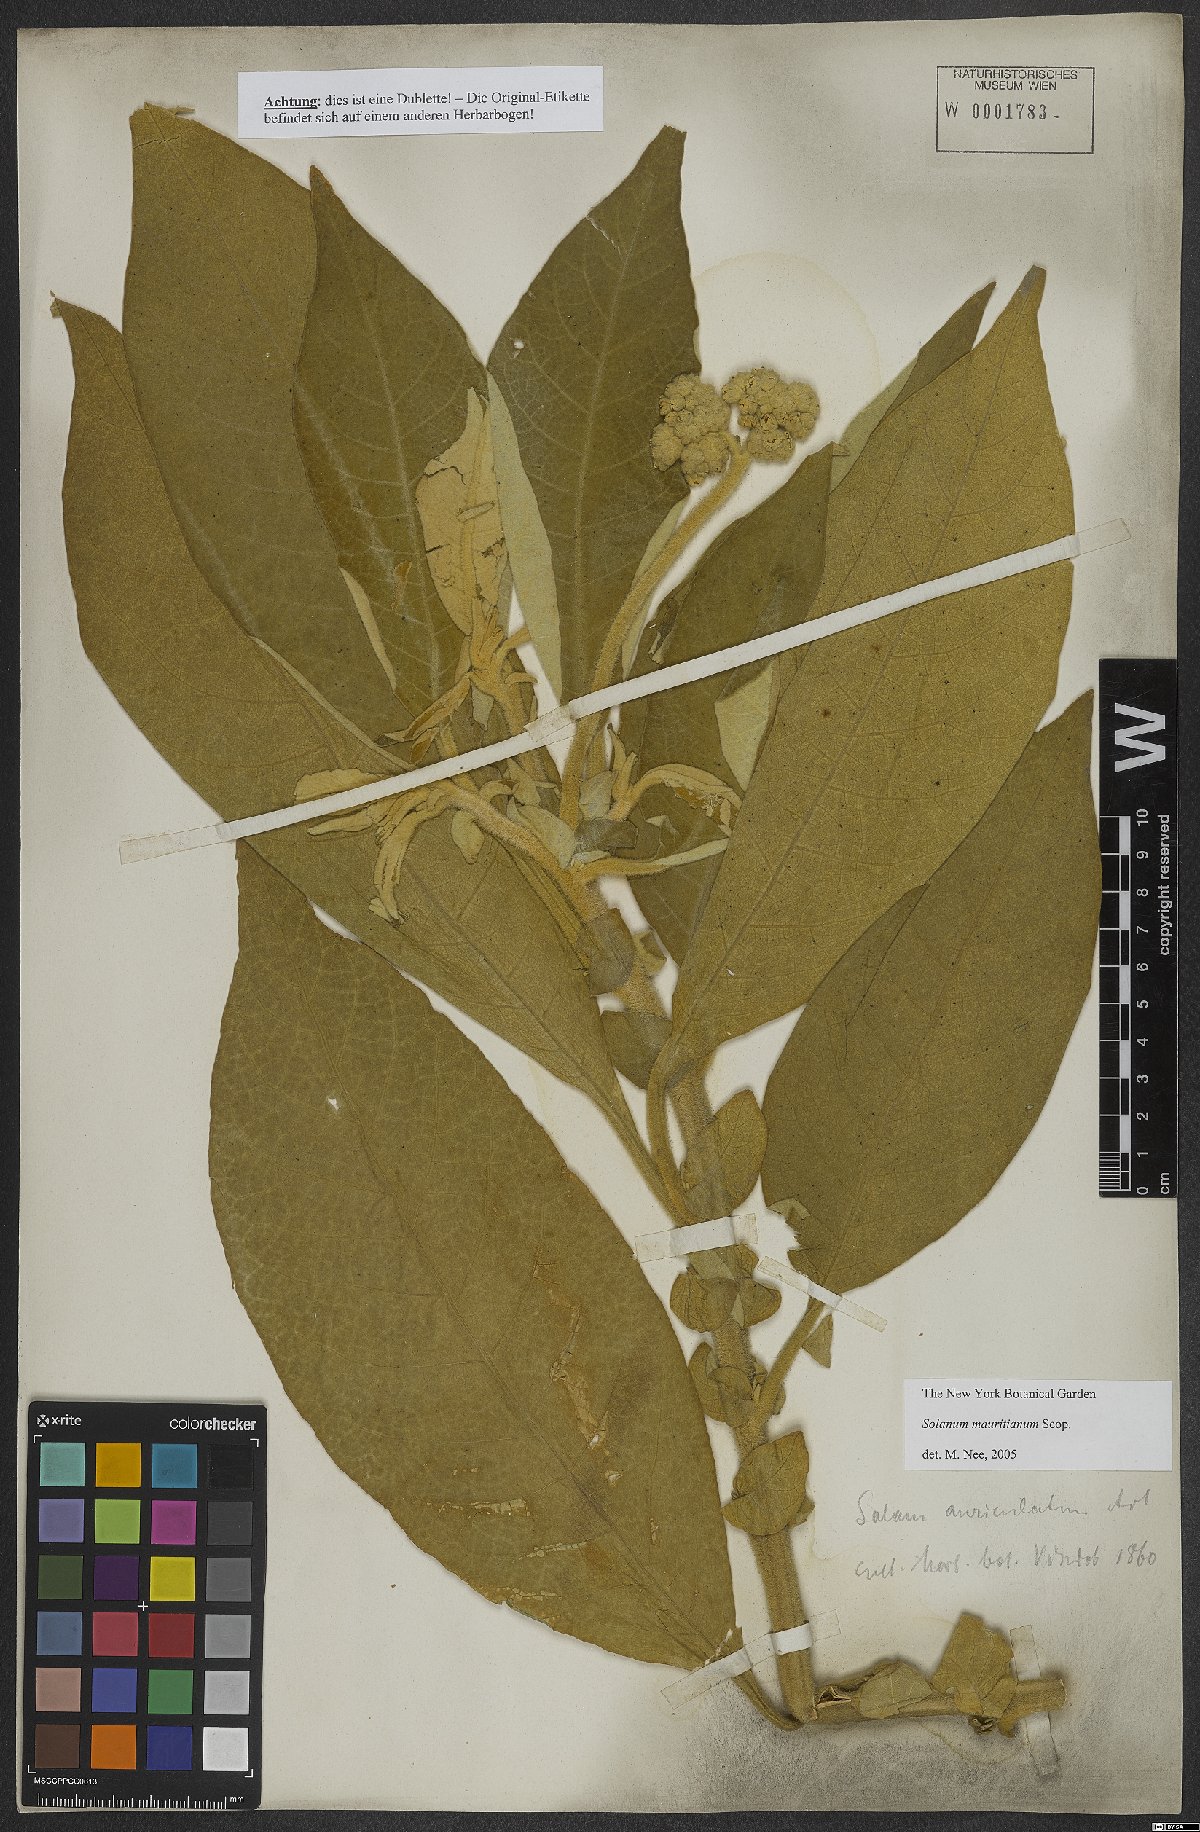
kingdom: Plantae
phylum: Tracheophyta
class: Magnoliopsida
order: Solanales
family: Solanaceae
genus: Solanum
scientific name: Solanum mauritianum
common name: Earleaf nightshade
